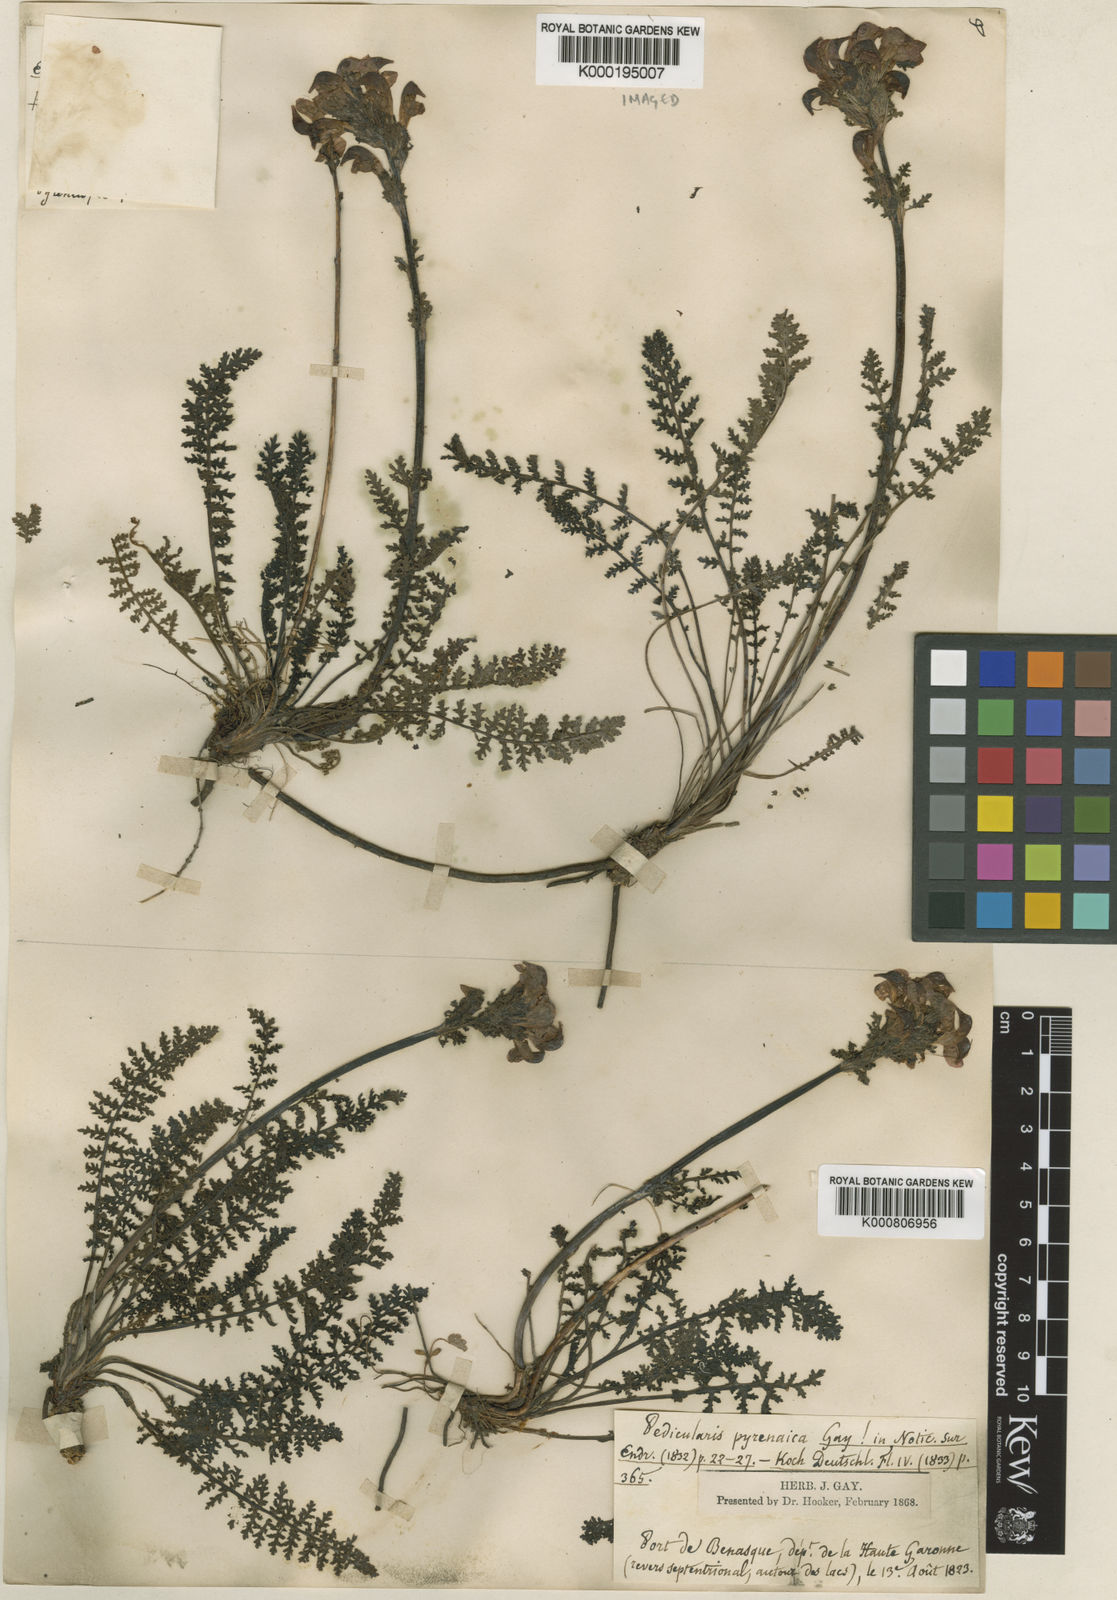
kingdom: Plantae
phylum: Tracheophyta
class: Magnoliopsida
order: Lamiales
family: Orobanchaceae
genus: Pedicularis
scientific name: Pedicularis pyrenaica
